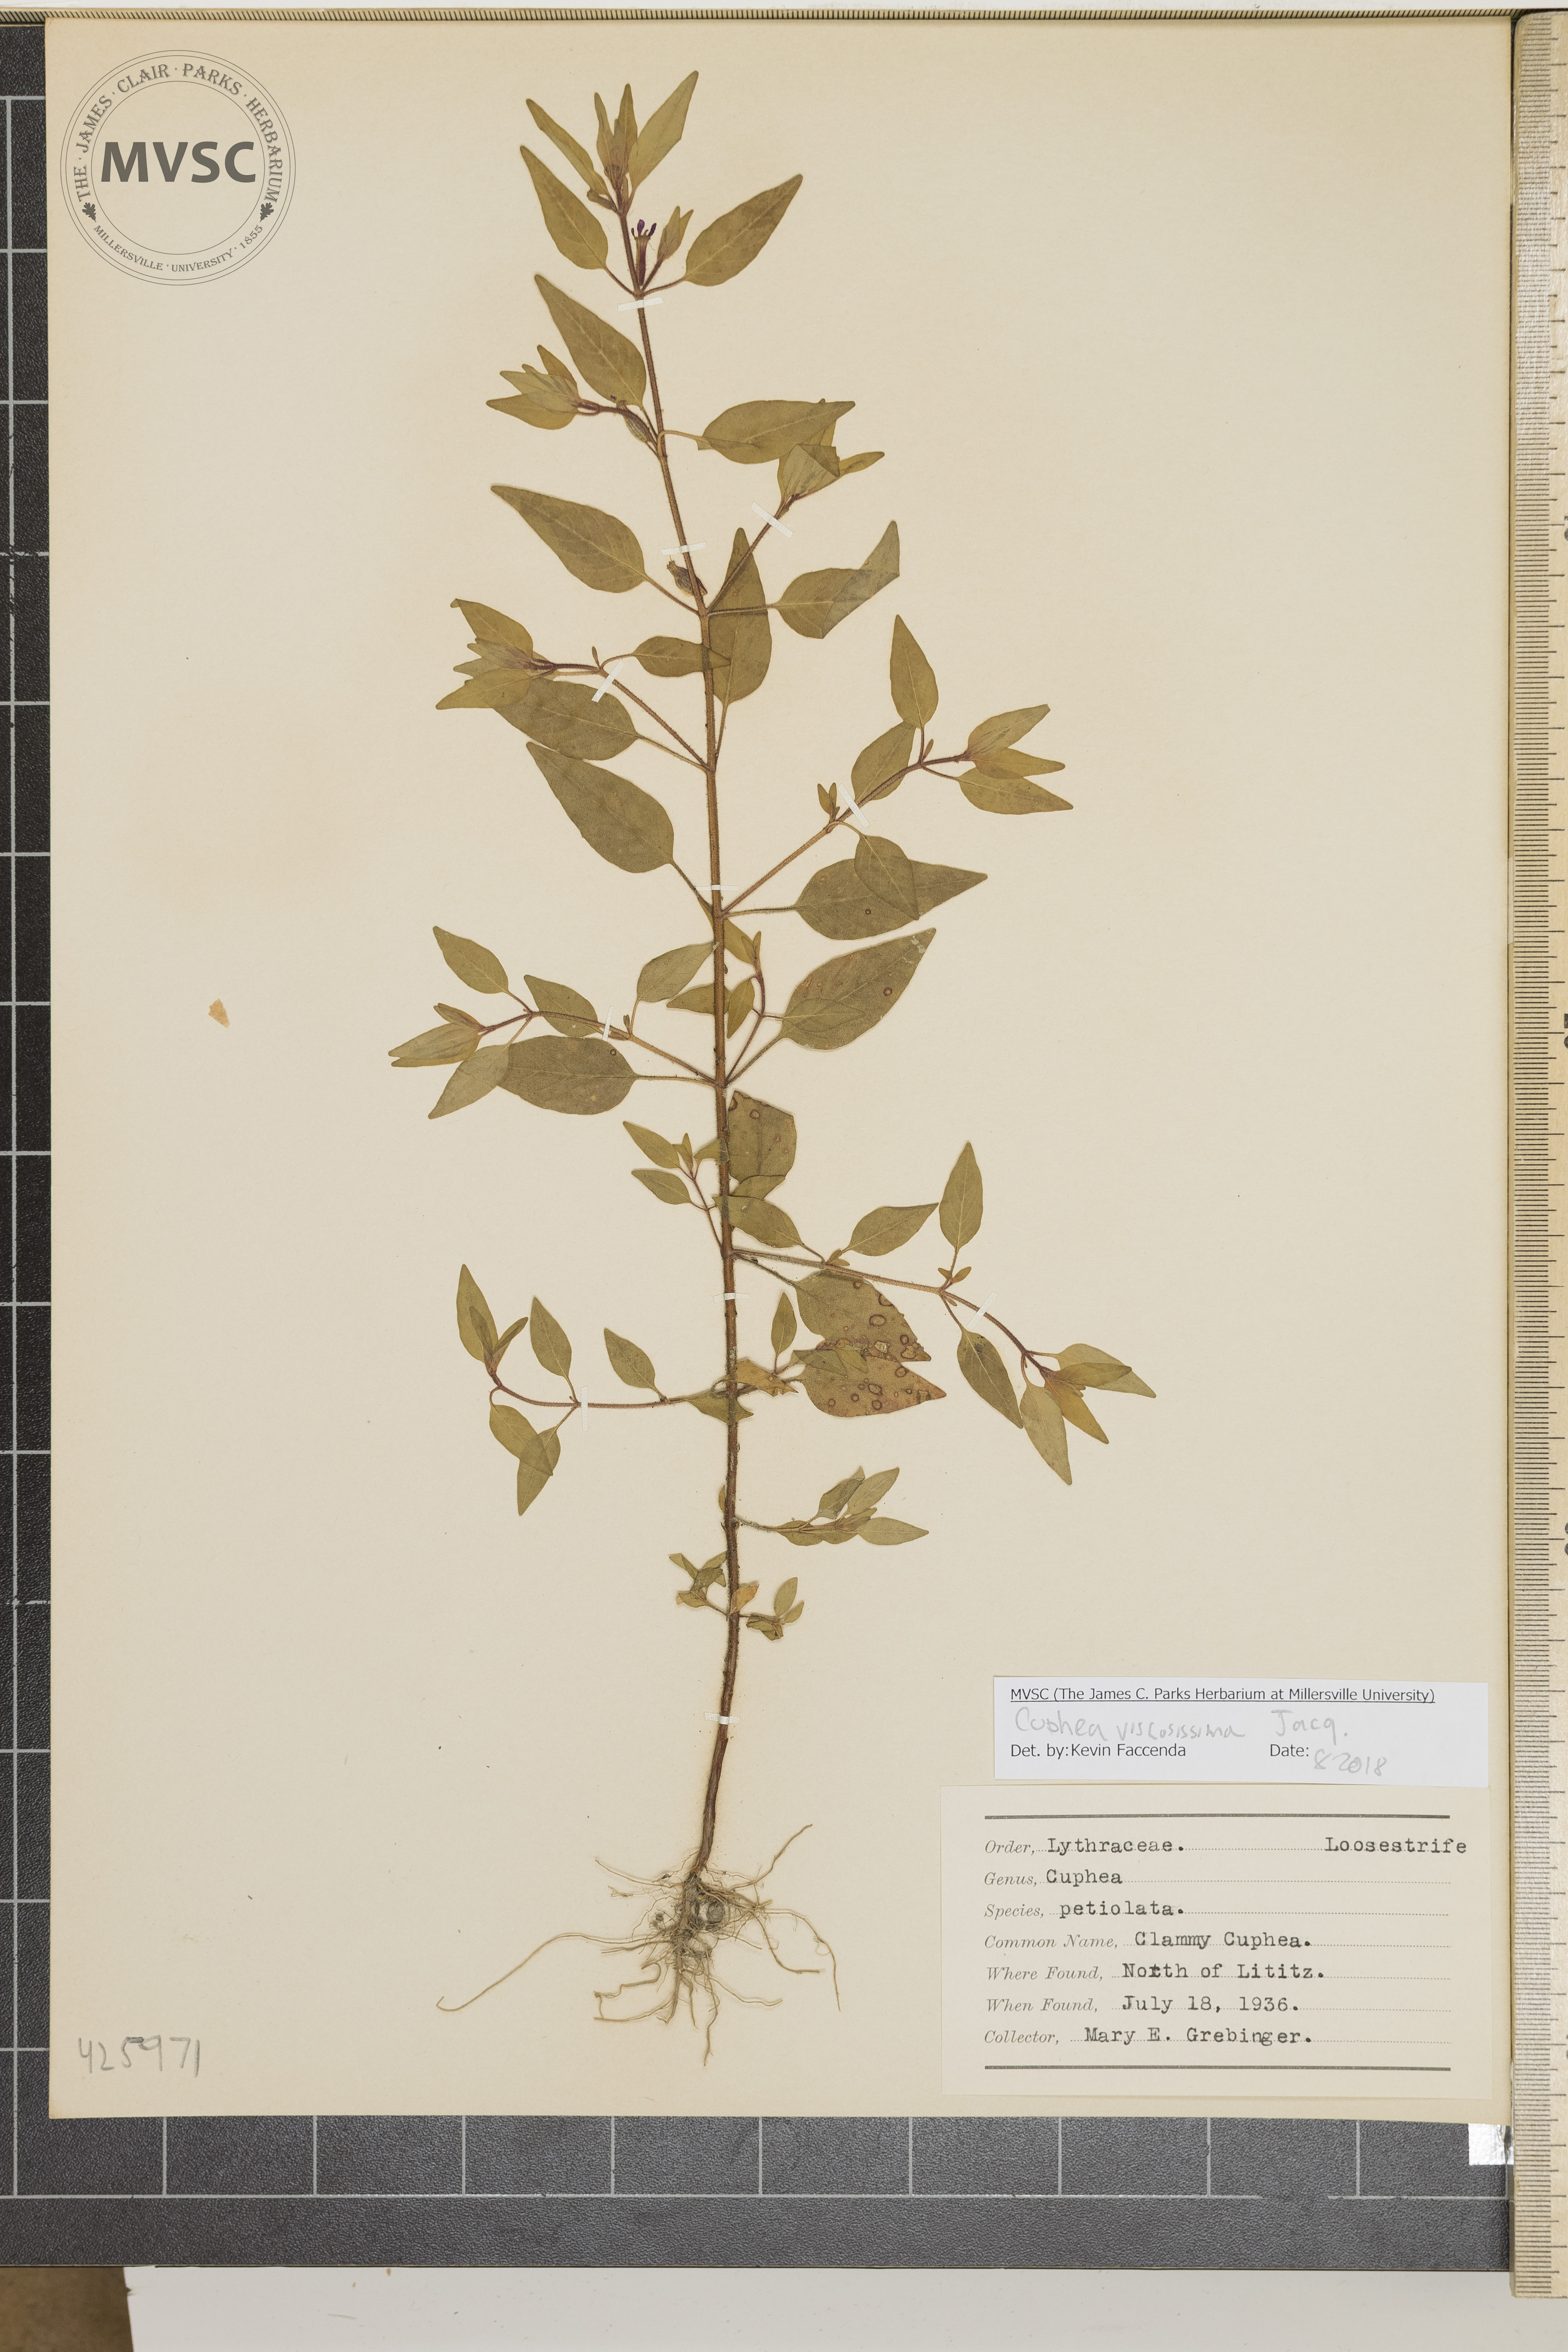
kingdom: Plantae
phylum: Tracheophyta
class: Magnoliopsida
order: Myrtales
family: Lythraceae
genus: Cuphea
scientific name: Cuphea viscosissima
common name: Clammy cuphea
